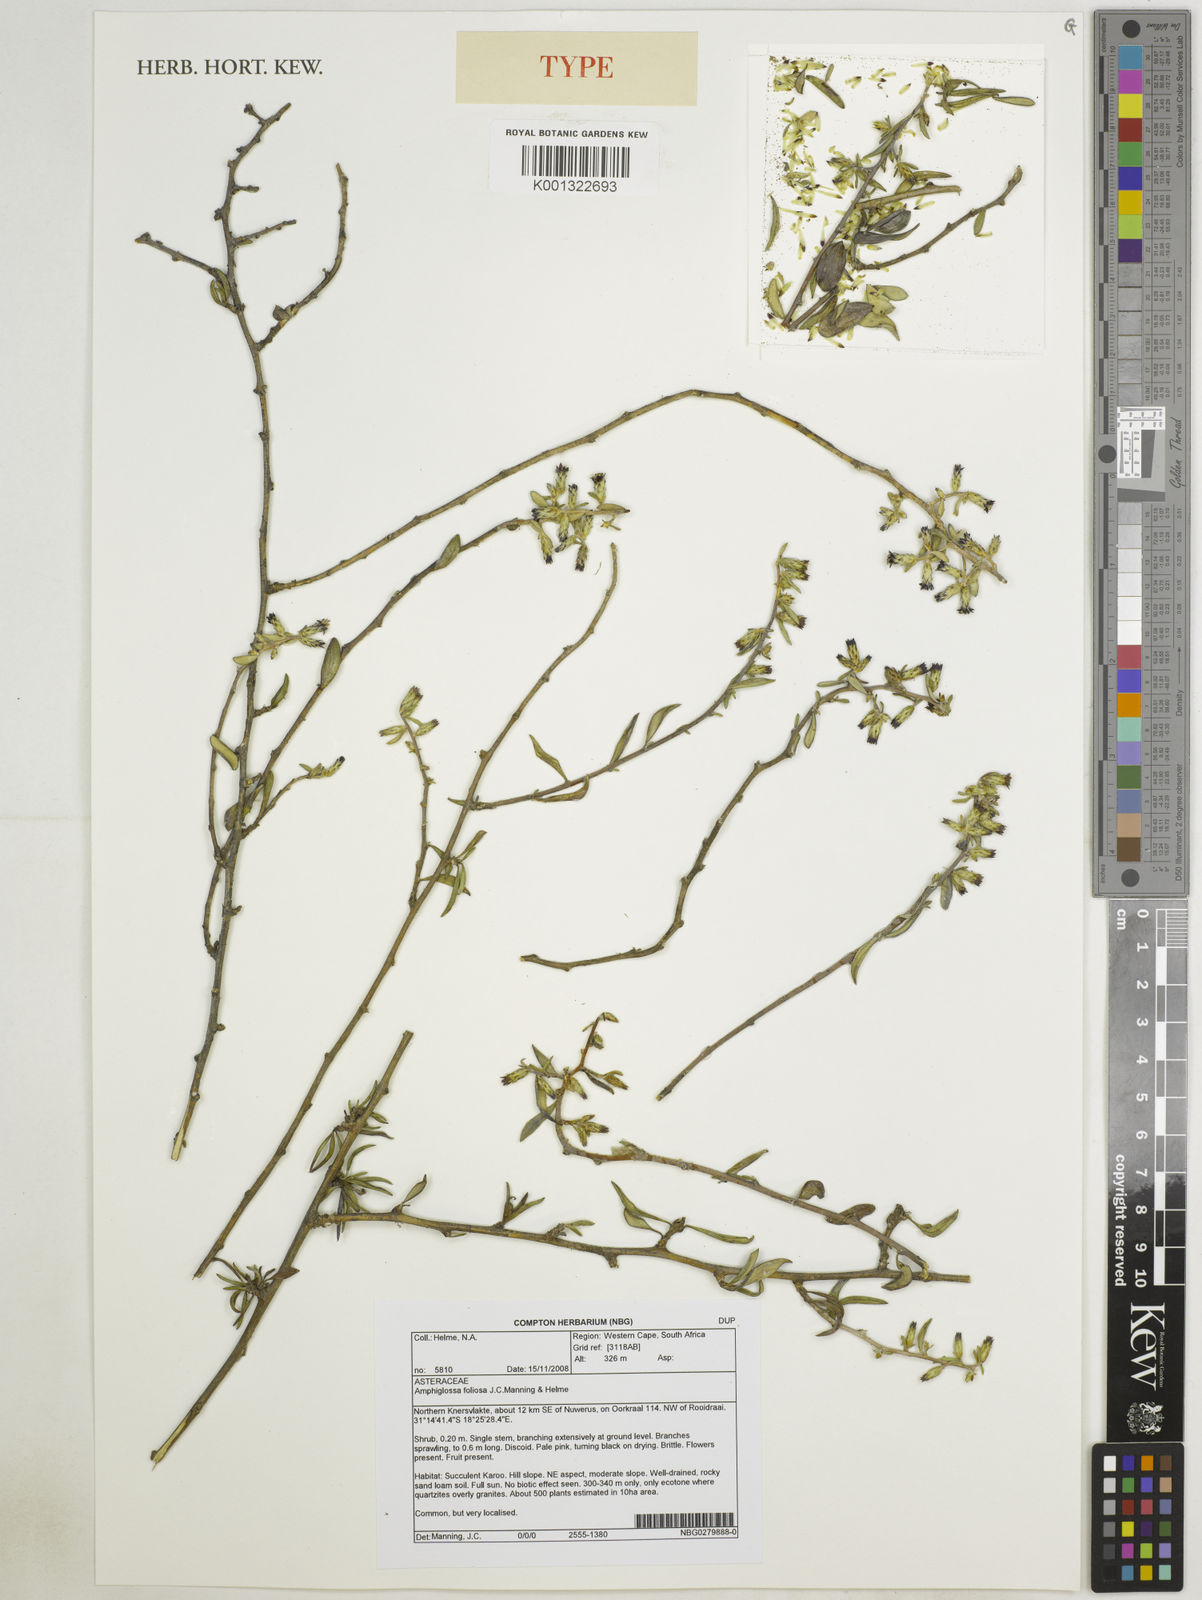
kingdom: Plantae
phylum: Tracheophyta
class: Magnoliopsida
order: Asterales
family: Asteraceae
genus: Amphiglossa
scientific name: Amphiglossa foliosa
